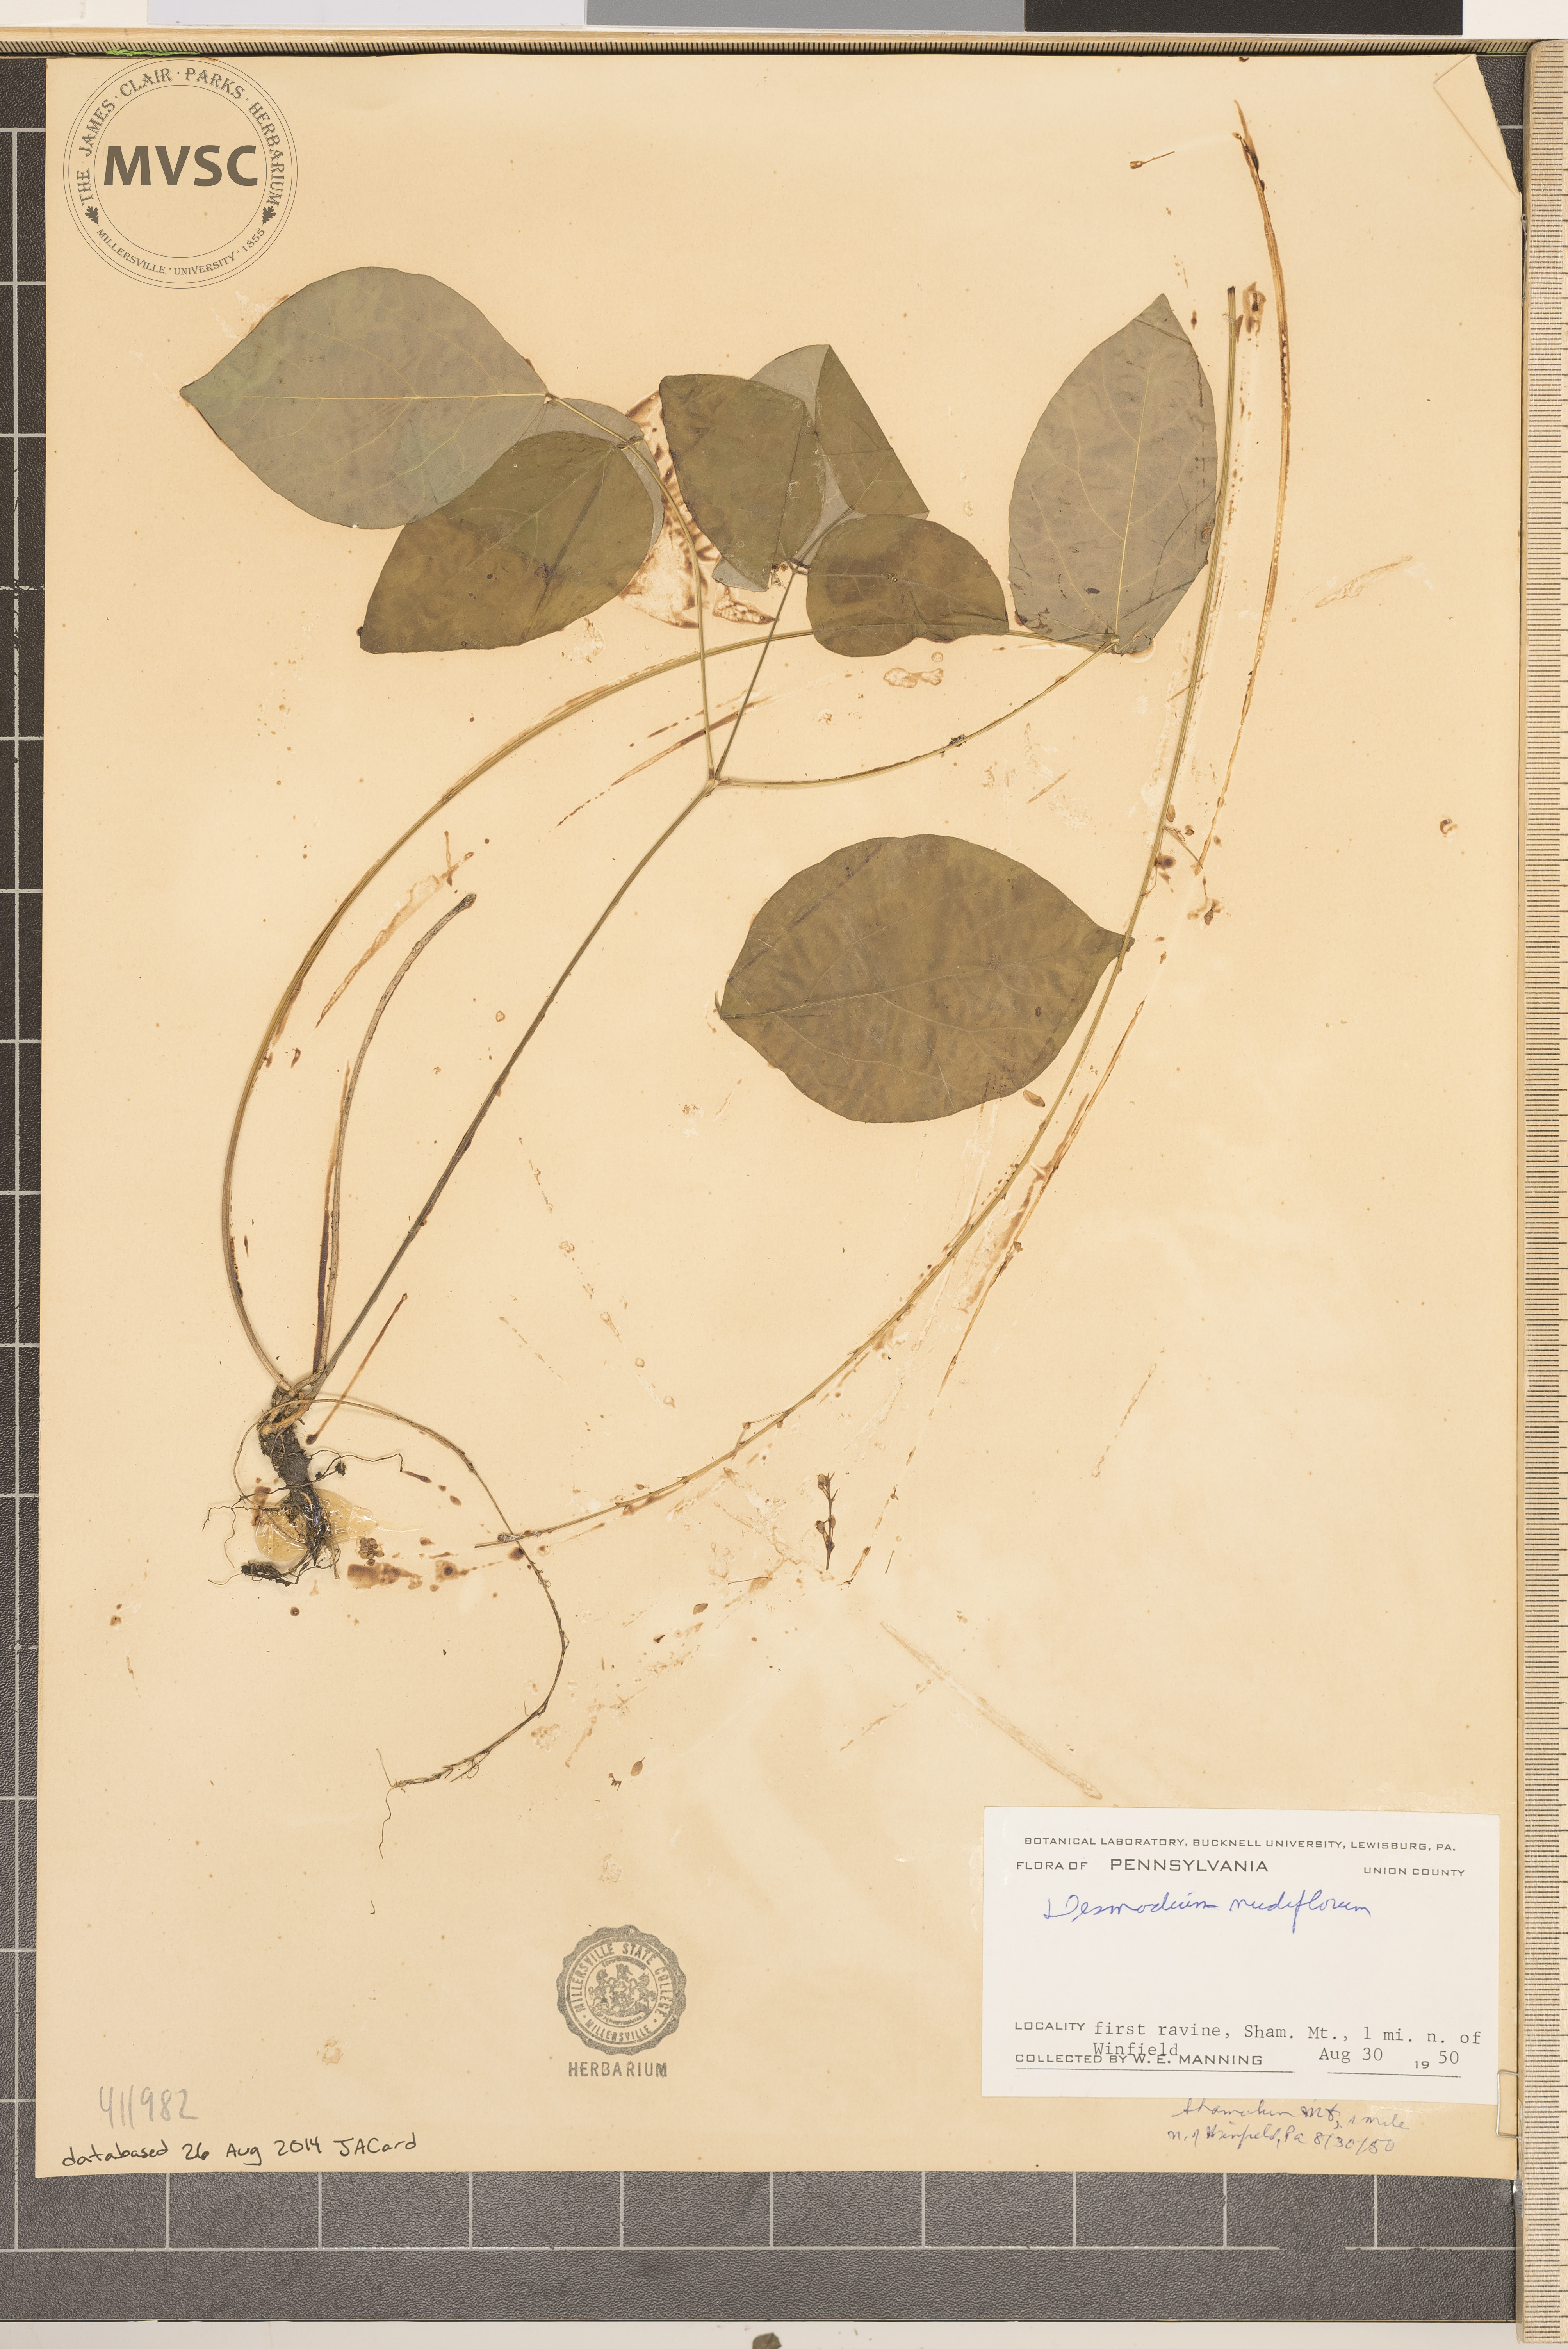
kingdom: Plantae
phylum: Tracheophyta
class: Magnoliopsida
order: Fabales
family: Fabaceae
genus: Hylodesmum
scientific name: Hylodesmum nudiflorum
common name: Bare-stemmed tick-trefoil
